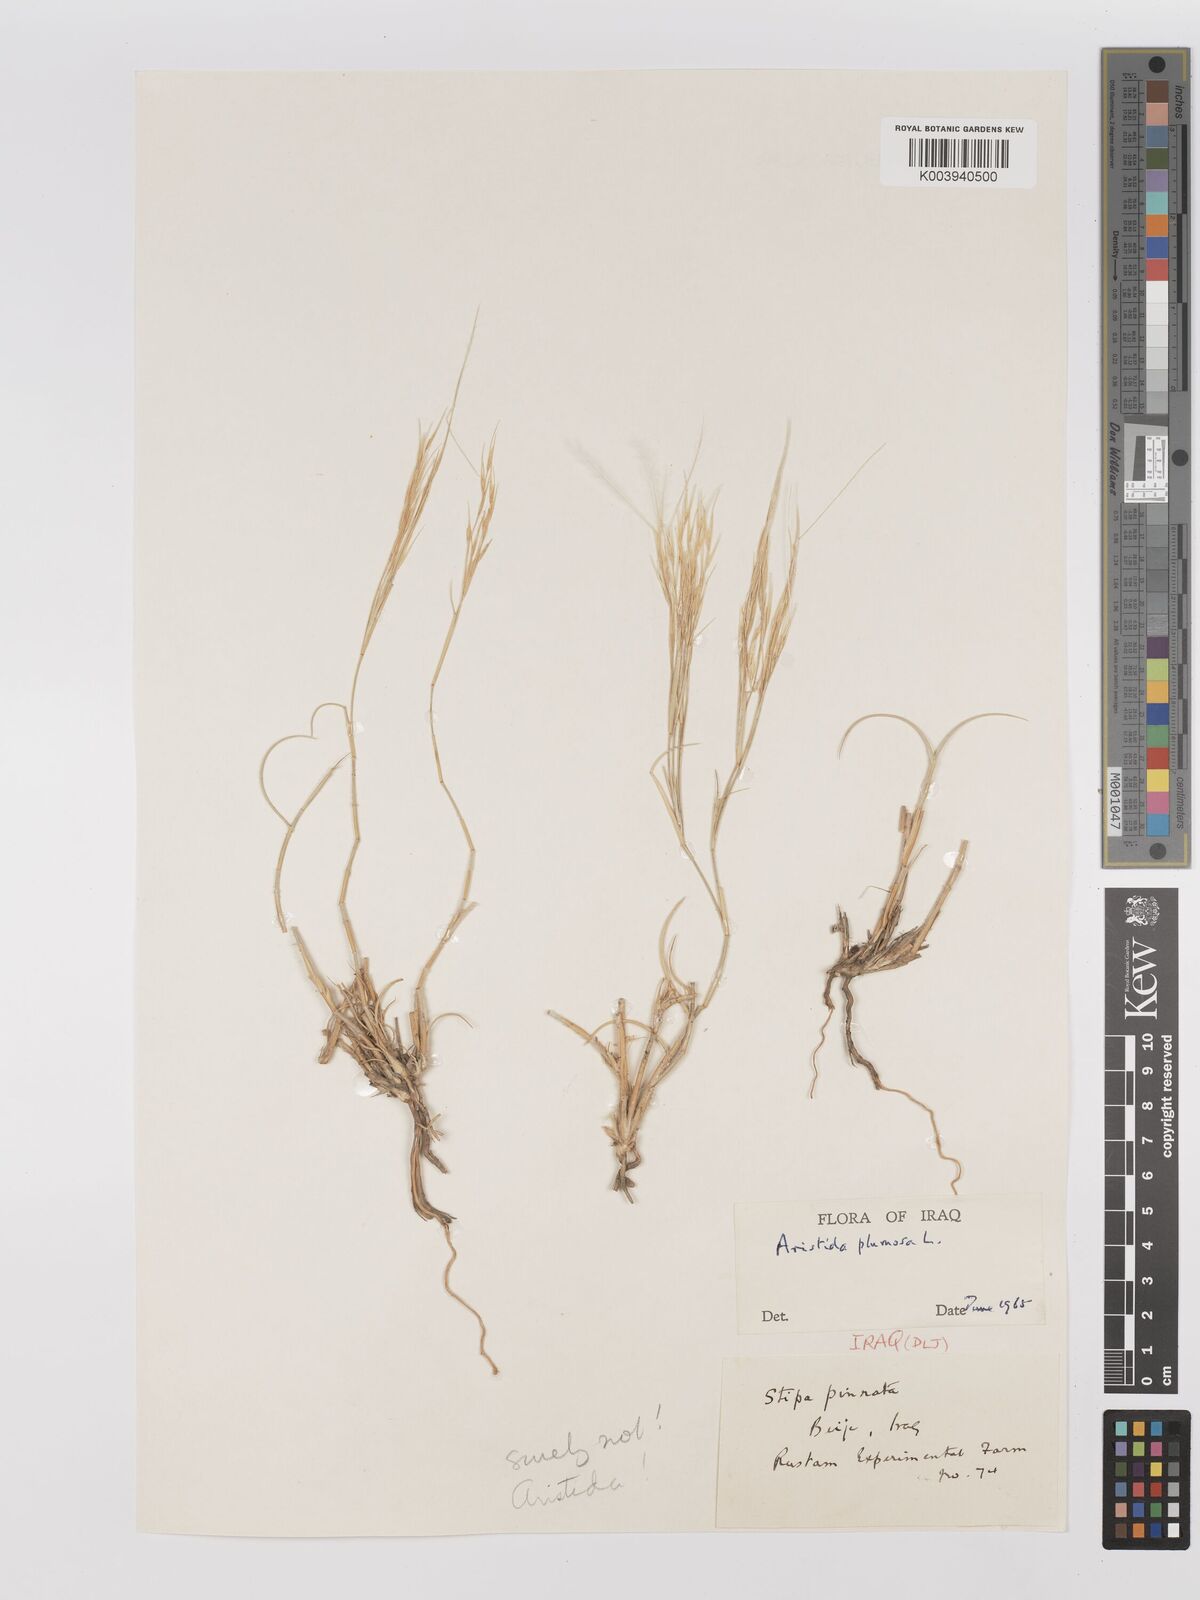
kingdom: Plantae
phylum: Tracheophyta
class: Liliopsida
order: Poales
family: Poaceae
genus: Stipagrostis
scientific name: Stipagrostis plumosa
